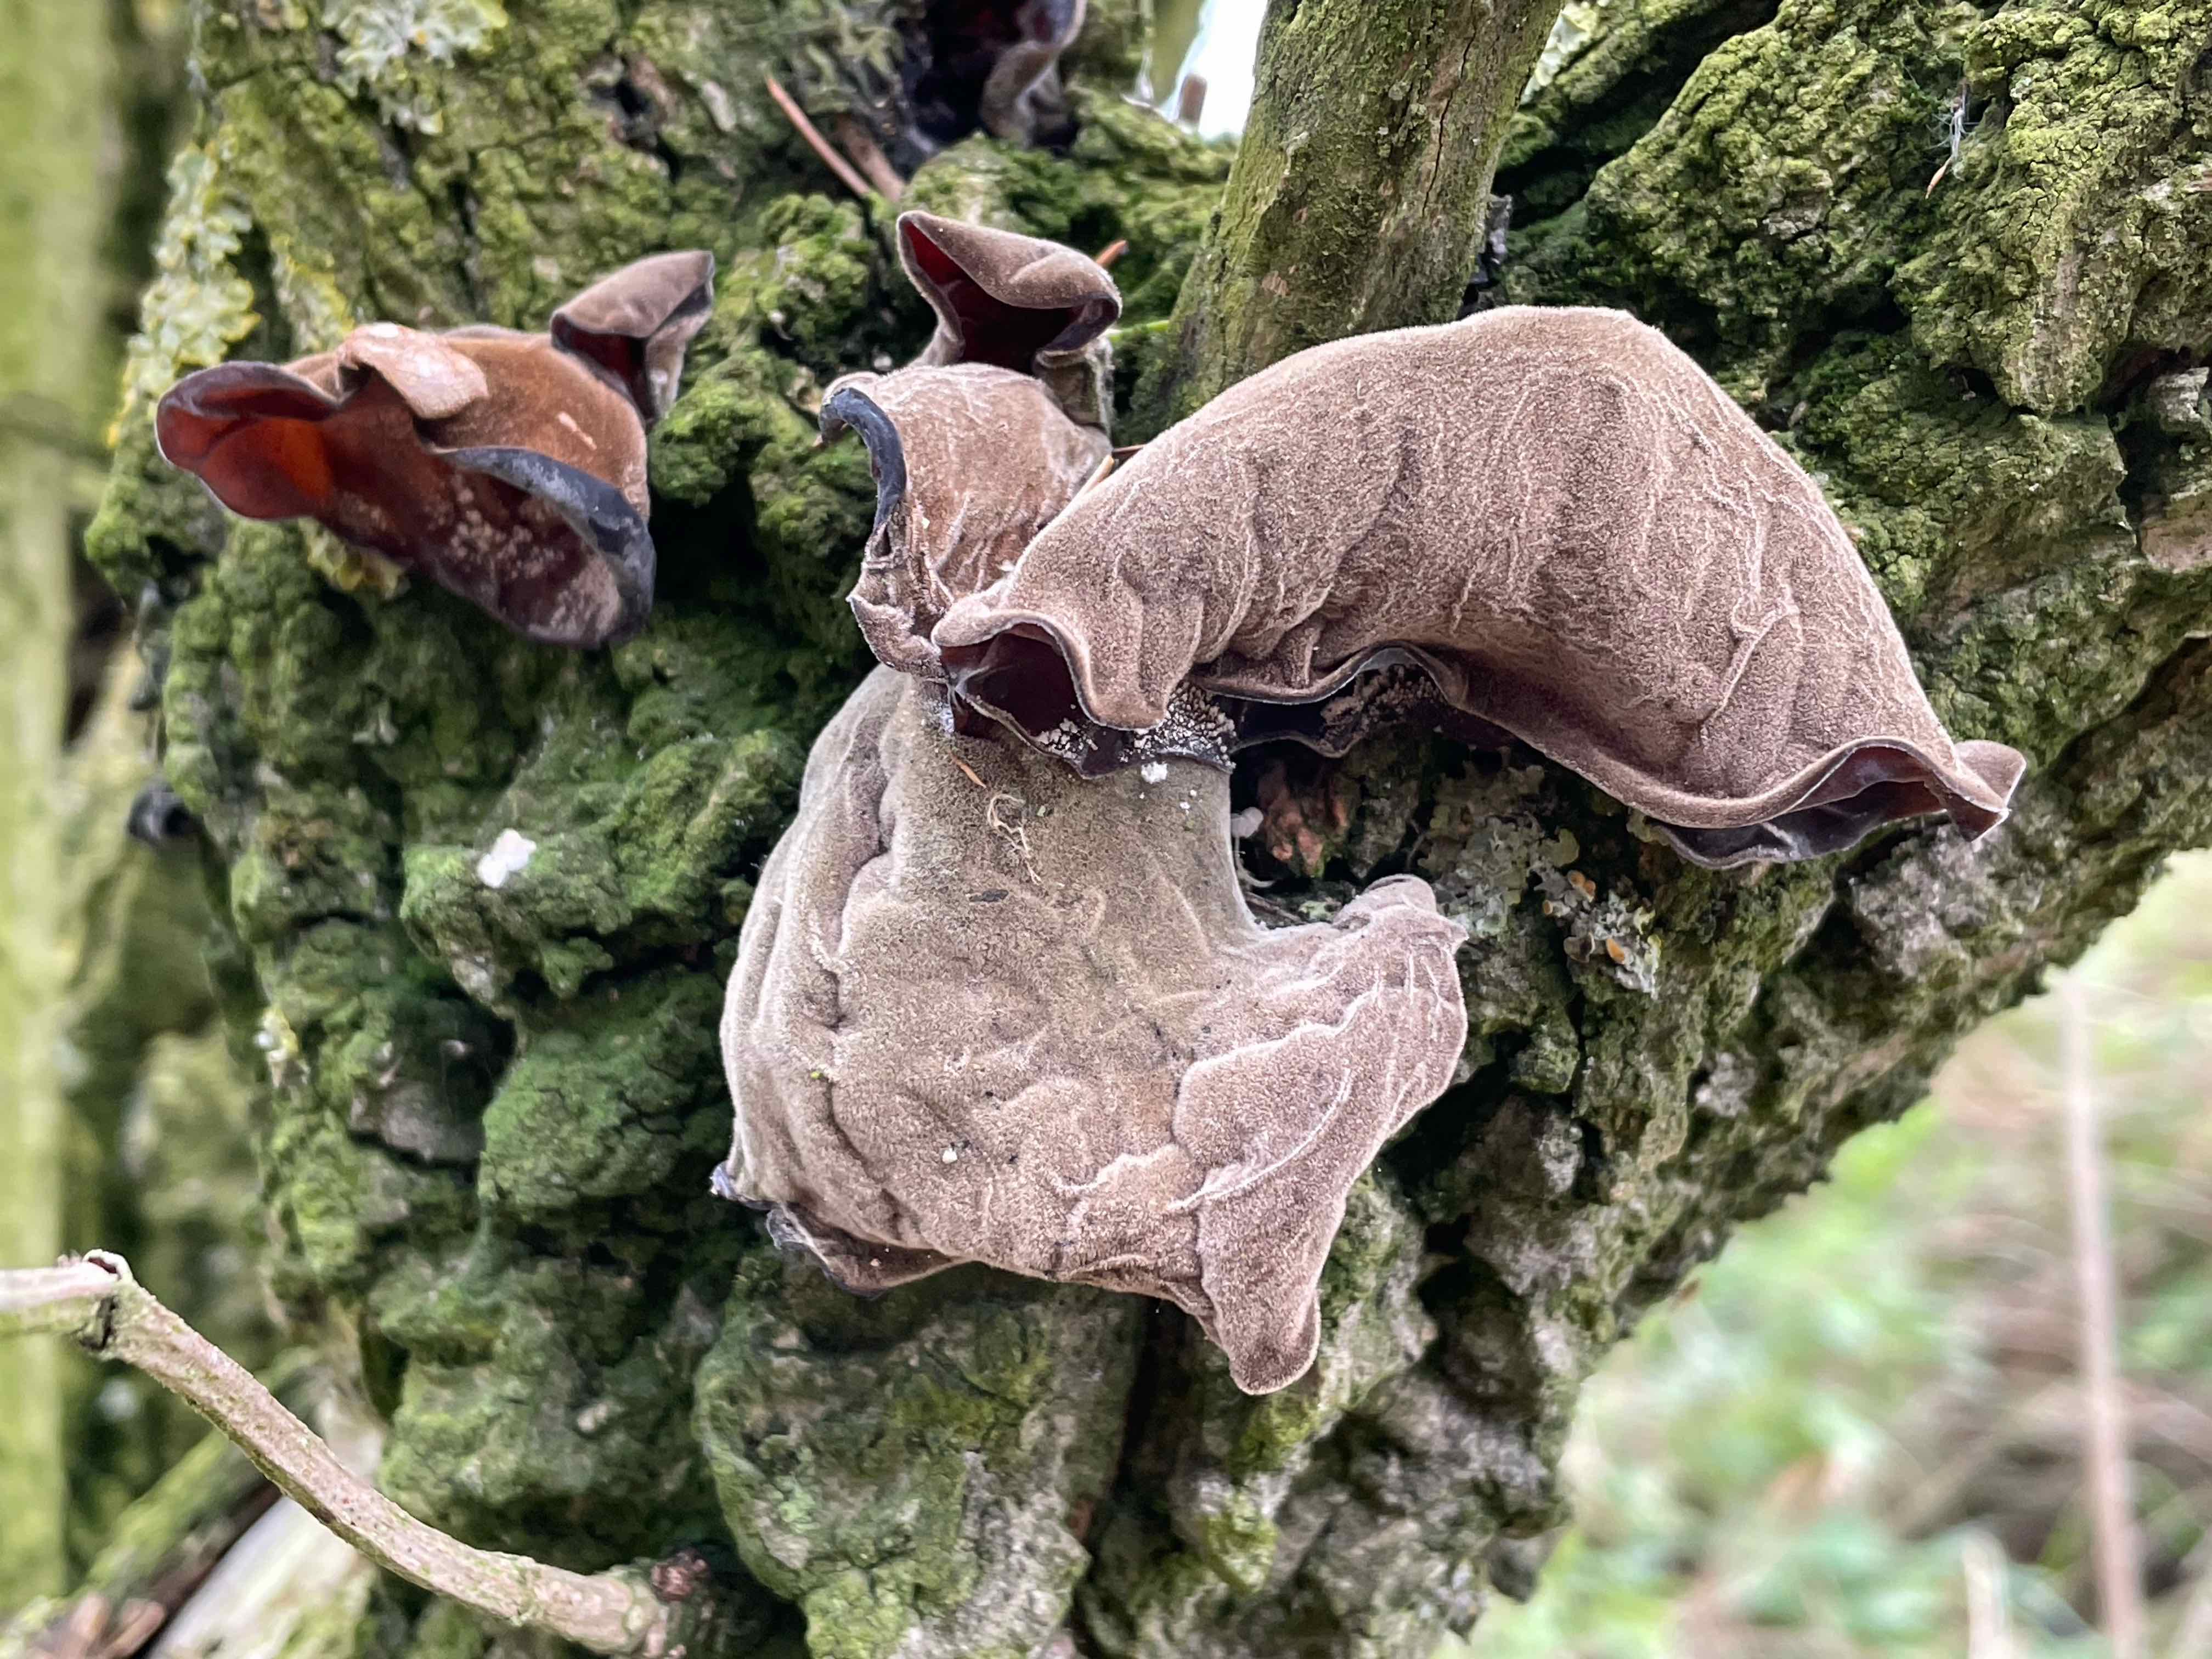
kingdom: Fungi
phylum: Basidiomycota
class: Agaricomycetes
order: Auriculariales
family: Auriculariaceae
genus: Auricularia
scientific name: Auricularia auricula-judae
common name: almindelig judasøre
